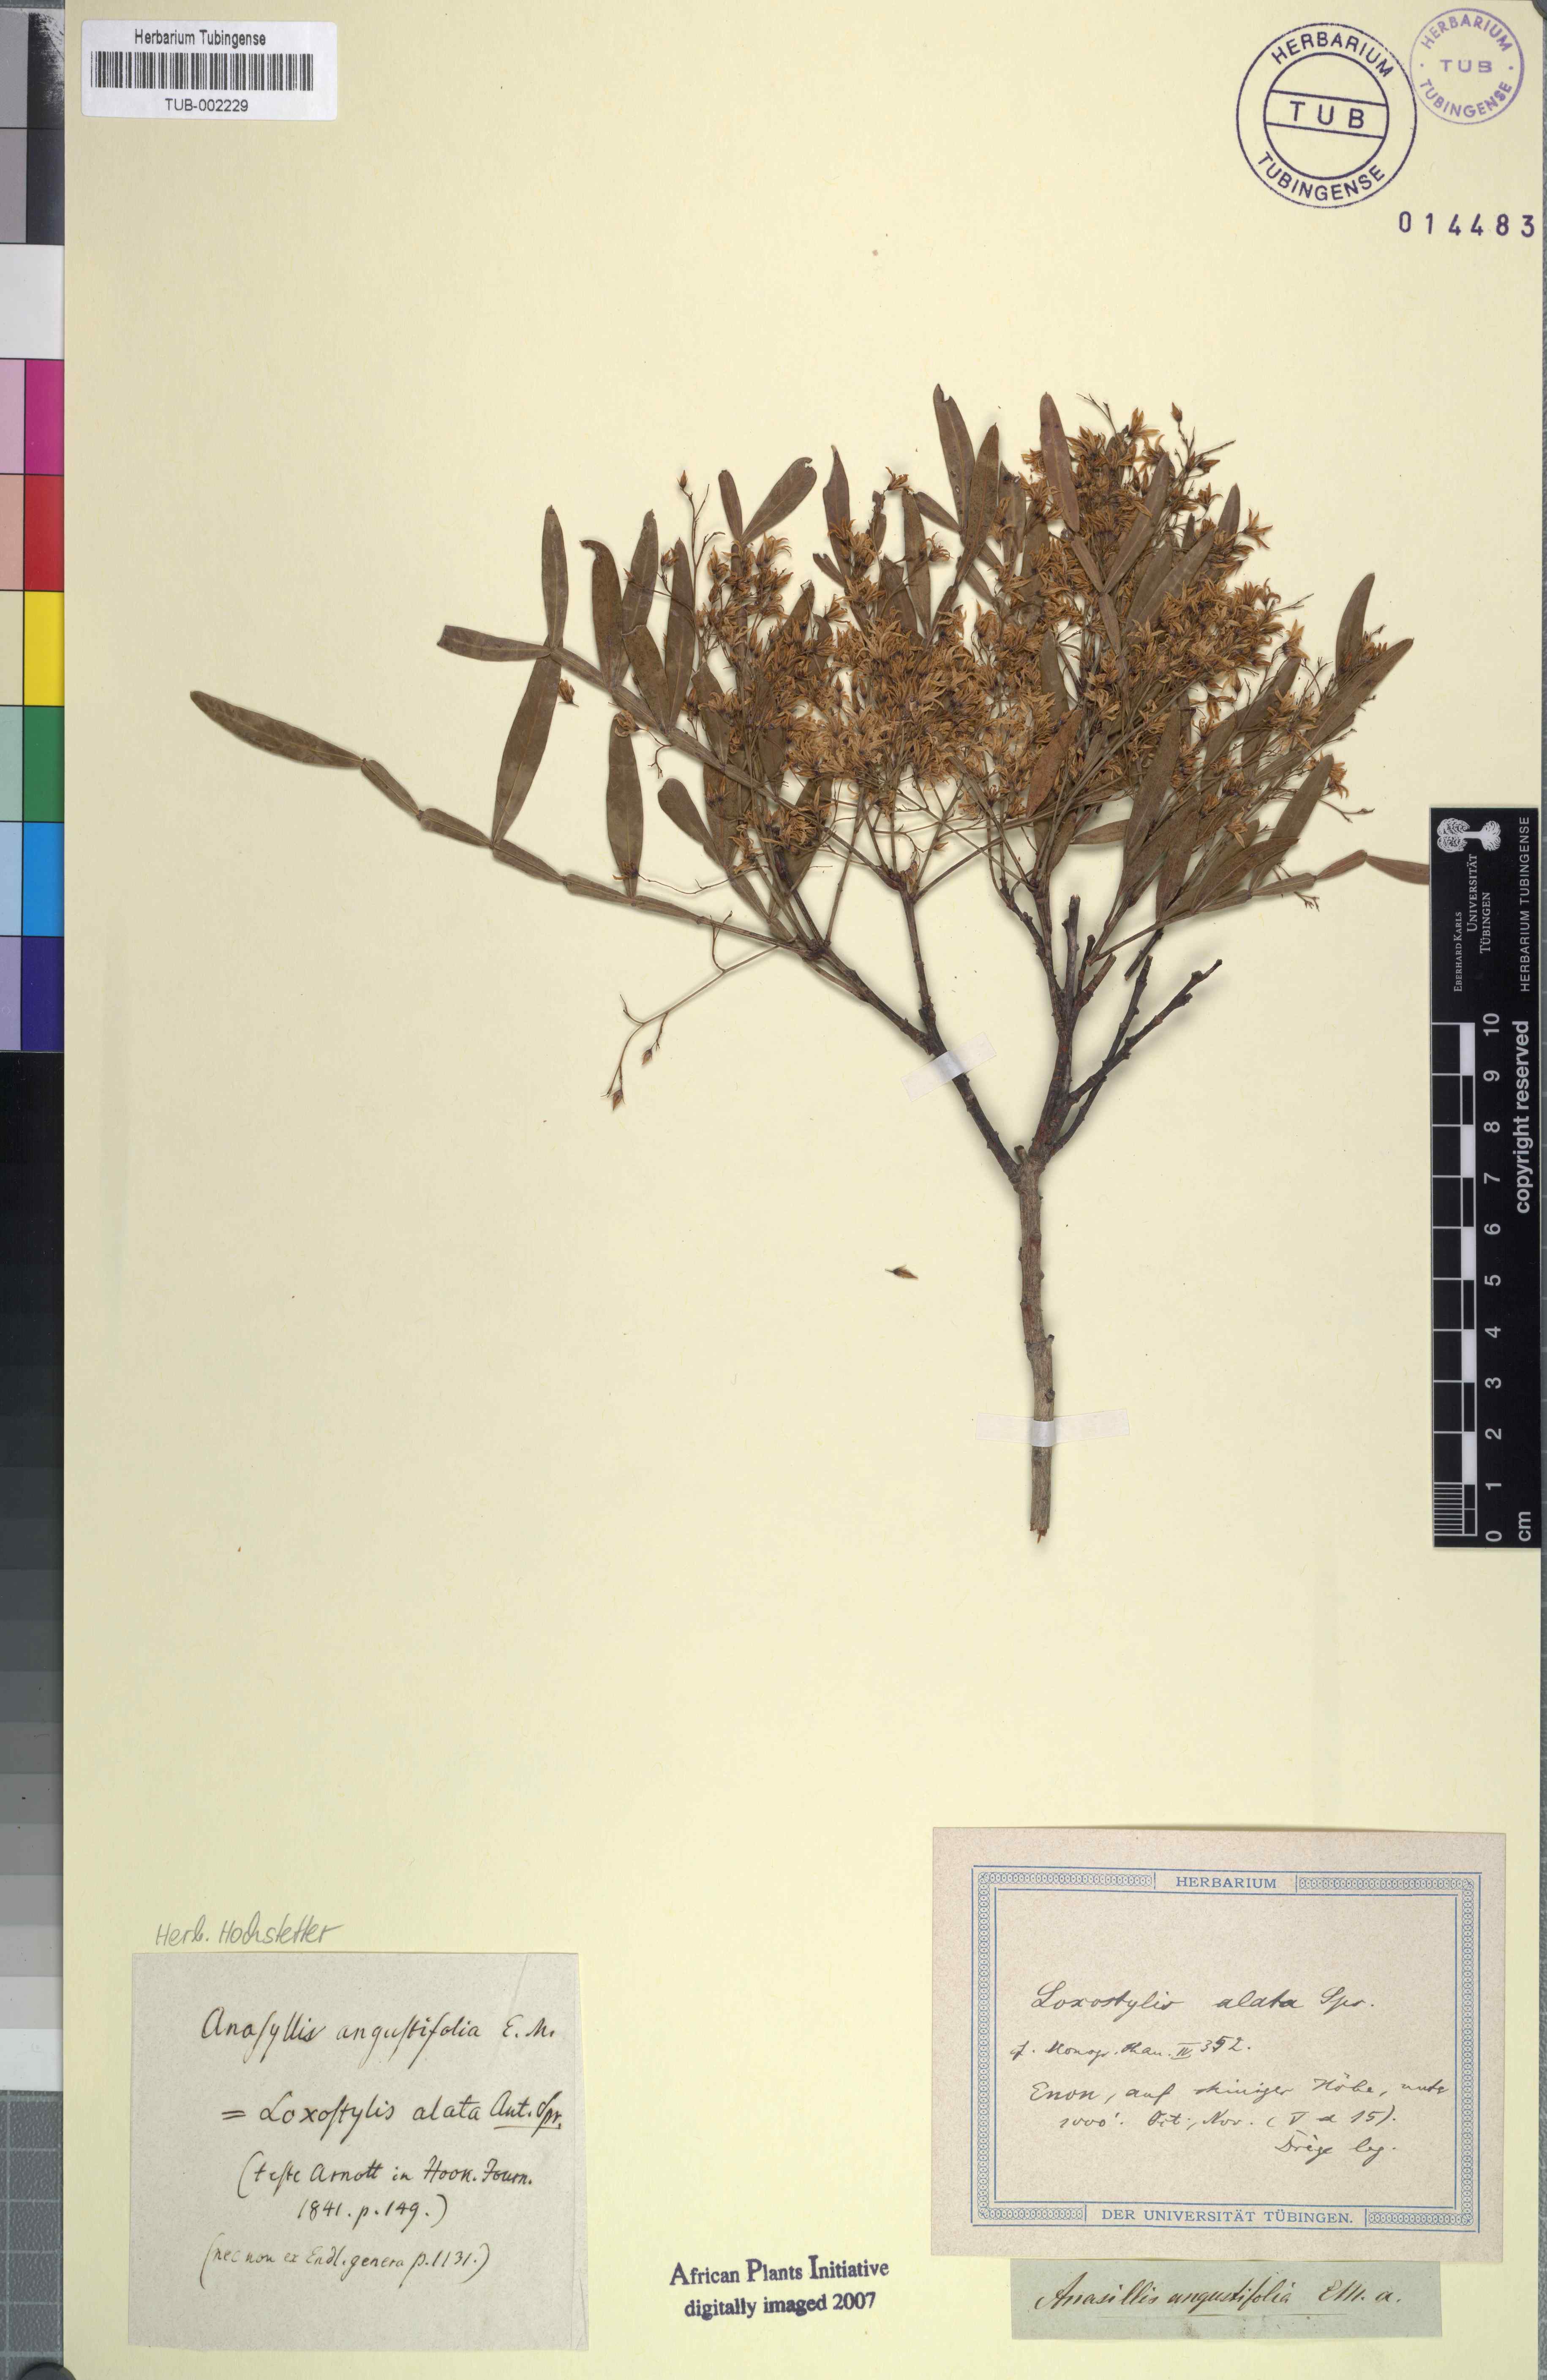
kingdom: Plantae
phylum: Tracheophyta
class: Magnoliopsida
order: Sapindales
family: Anacardiaceae
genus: Loxostylis
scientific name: Loxostylis alata
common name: Wild peppertree
